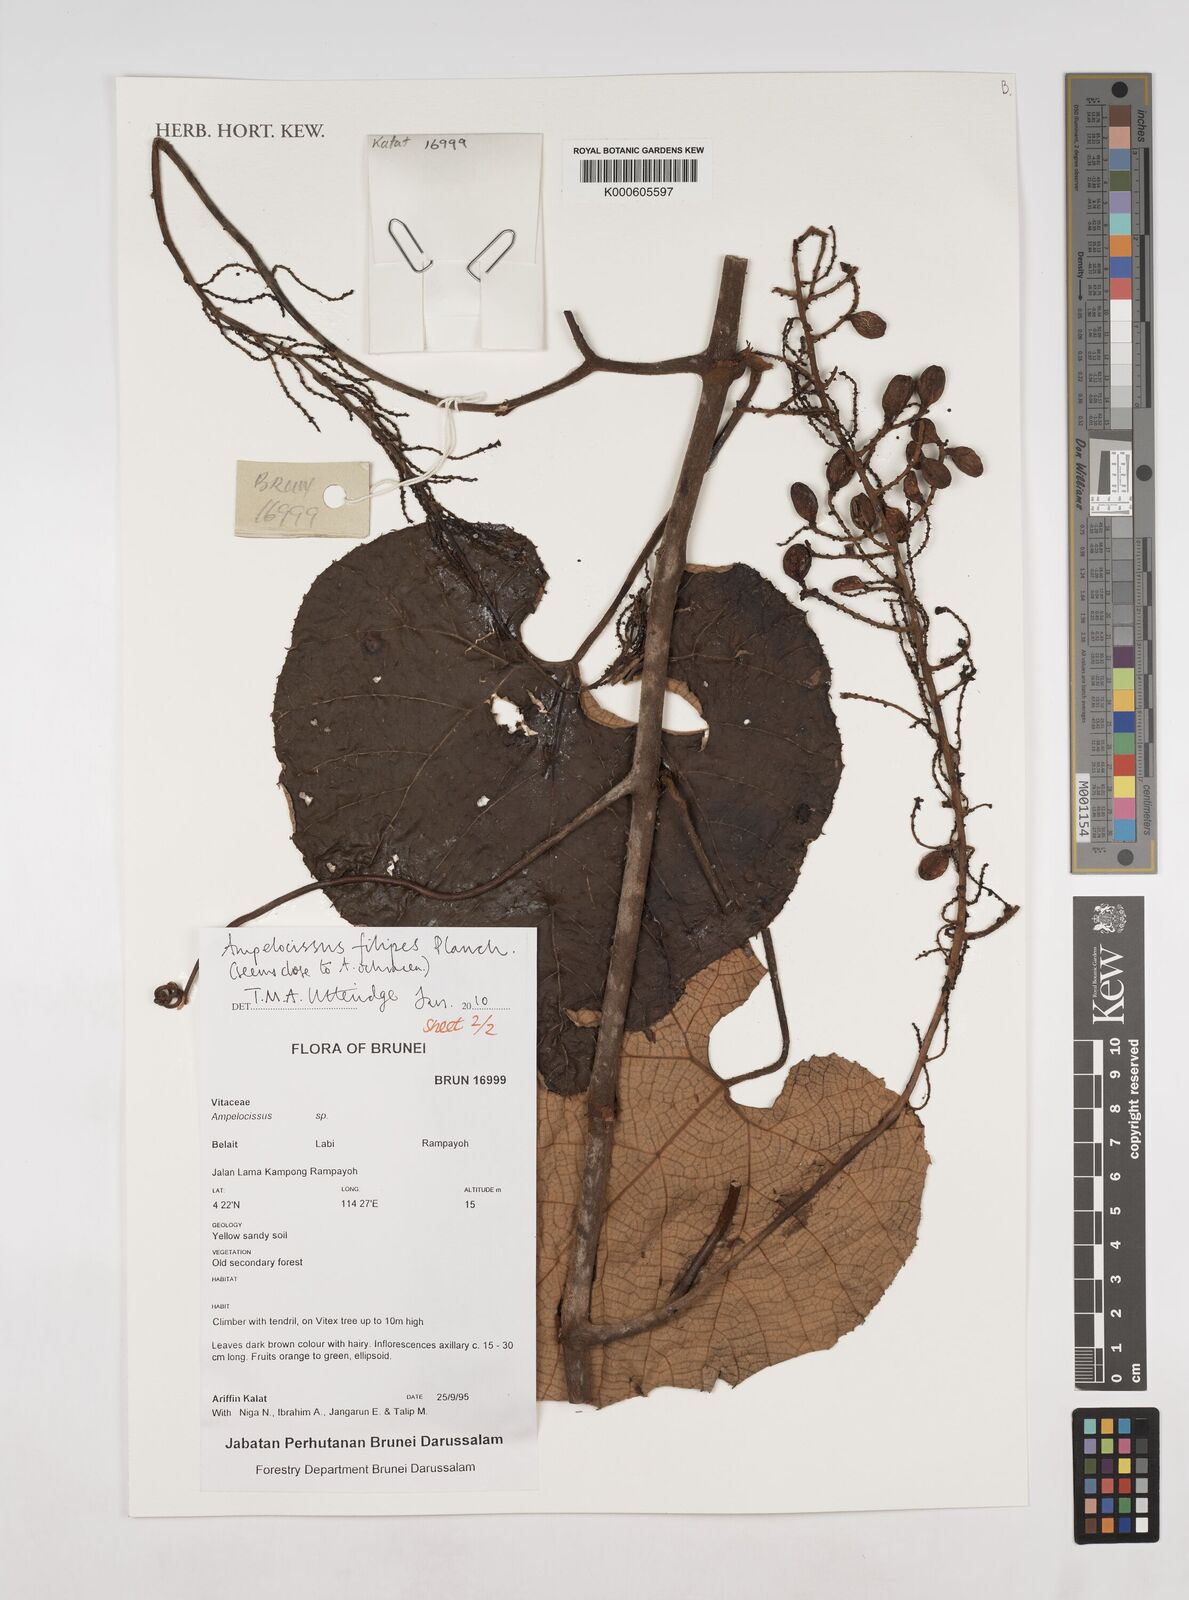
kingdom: Plantae
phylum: Tracheophyta
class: Magnoliopsida
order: Vitales
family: Vitaceae
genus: Ampelocissus
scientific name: Ampelocissus filipes
